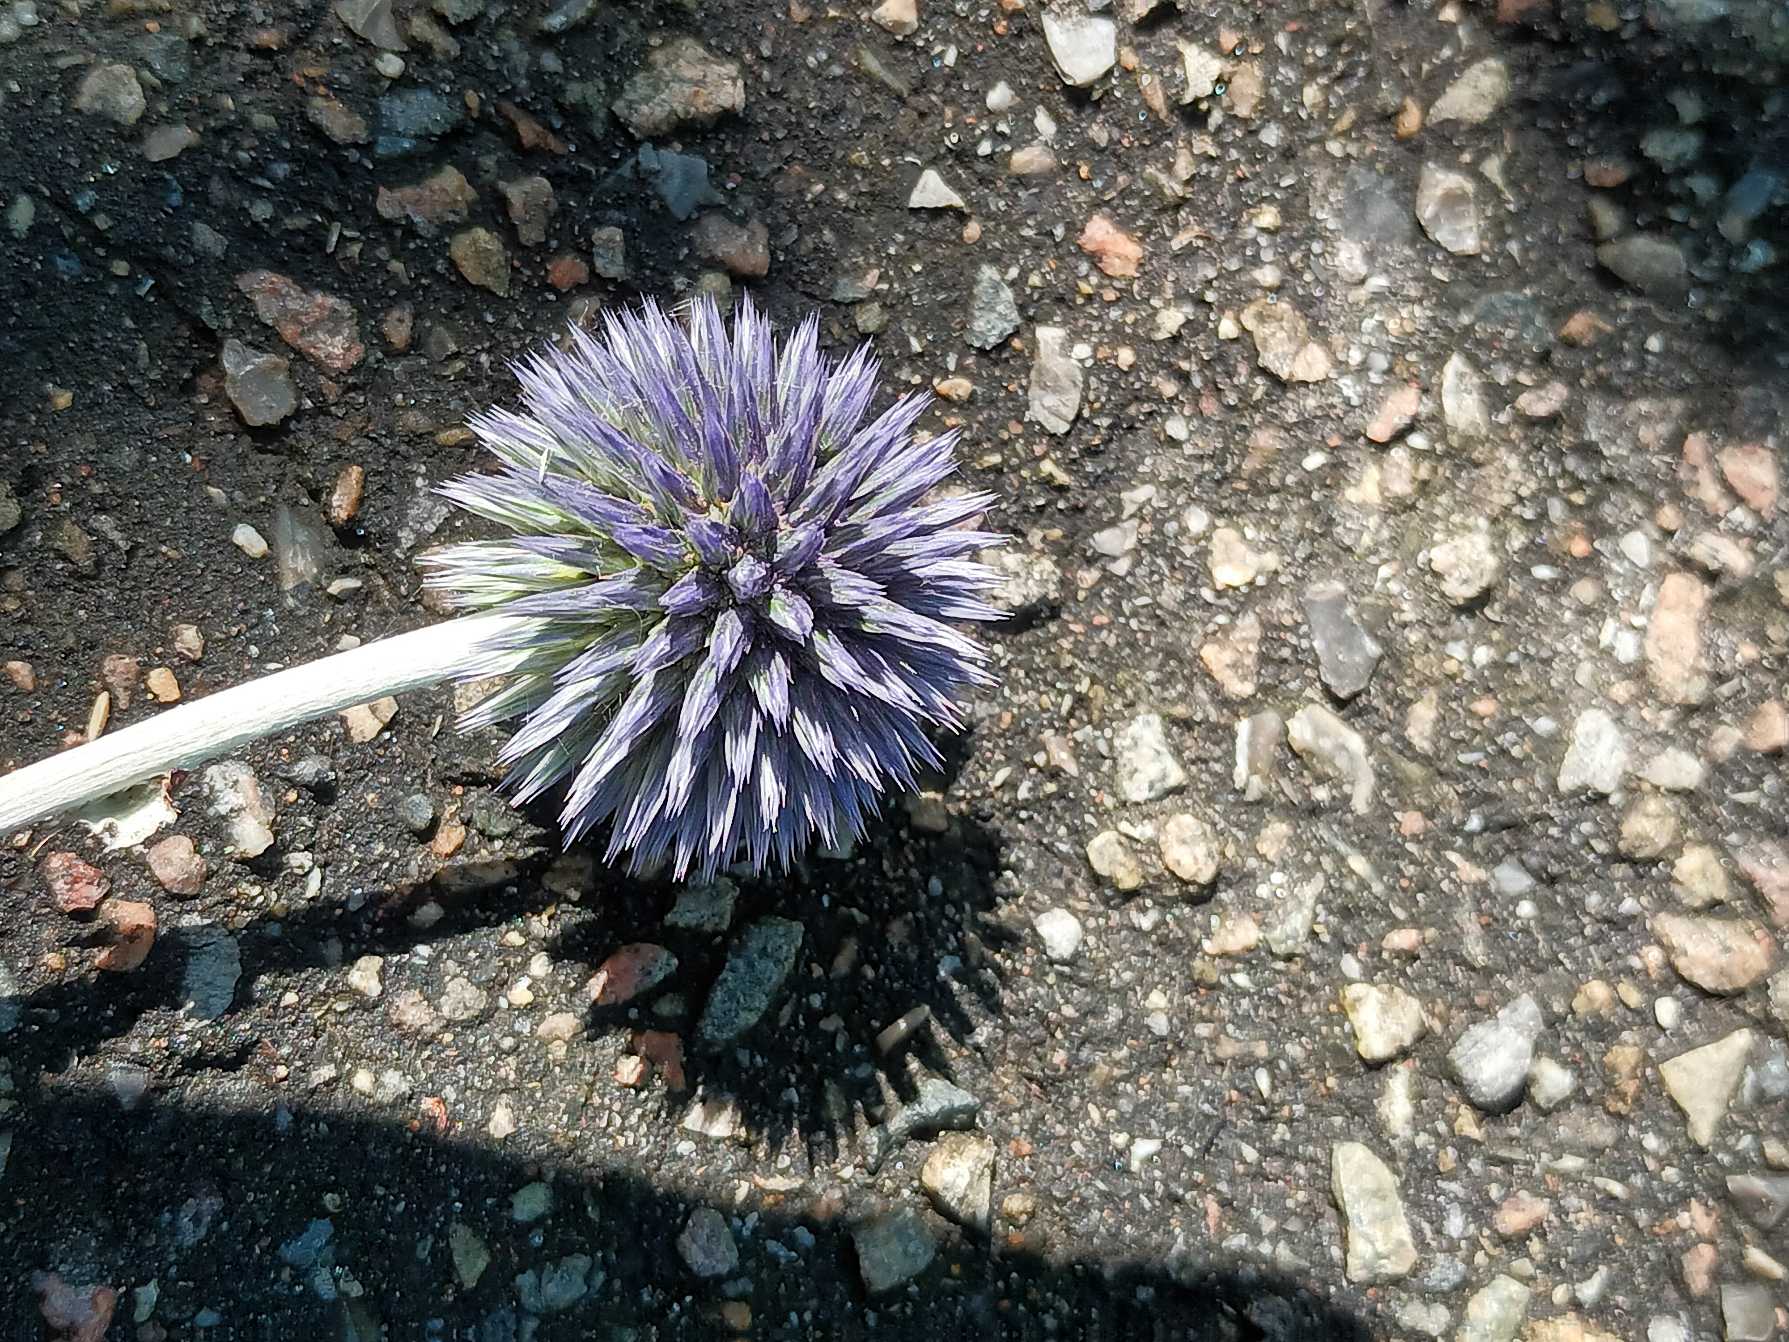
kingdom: Plantae
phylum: Tracheophyta
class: Magnoliopsida
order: Asterales
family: Asteraceae
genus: Echinops
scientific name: Echinops bannaticus
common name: Blå tidselkugle
